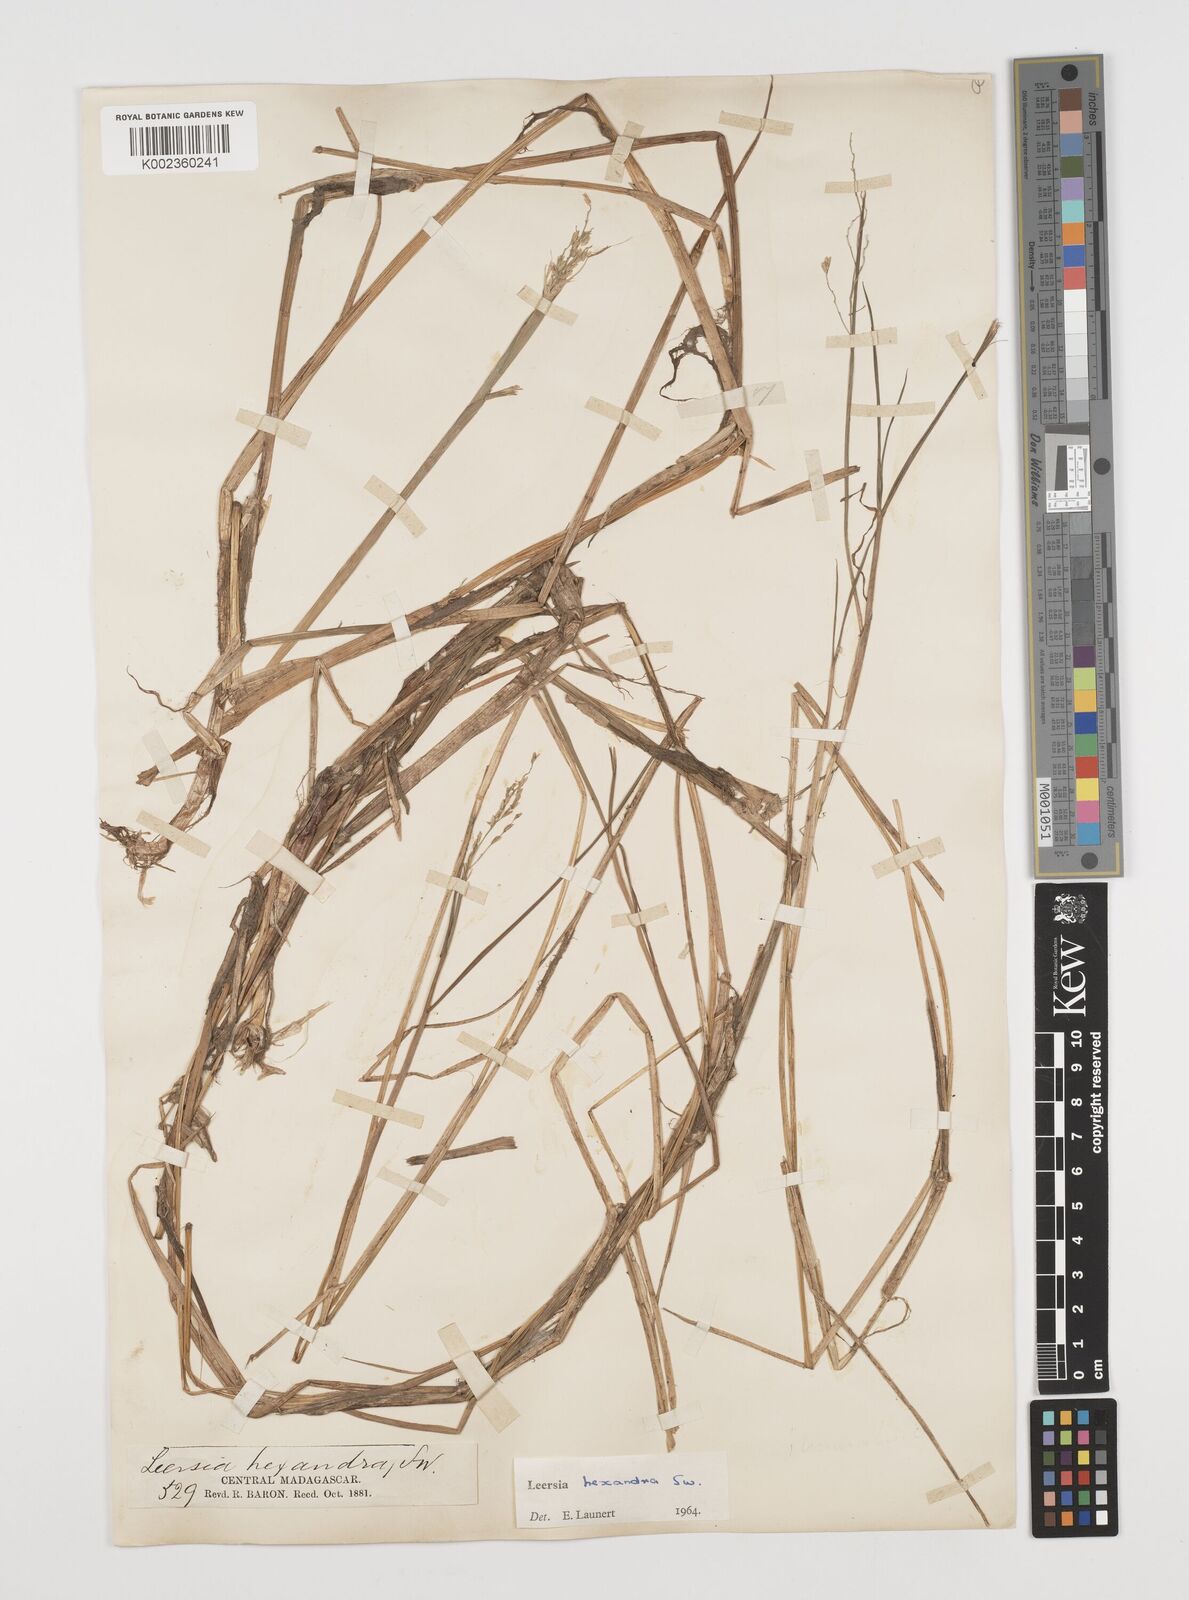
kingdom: Plantae
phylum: Tracheophyta
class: Liliopsida
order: Poales
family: Poaceae
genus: Leersia
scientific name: Leersia hexandra
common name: Southern cut grass
